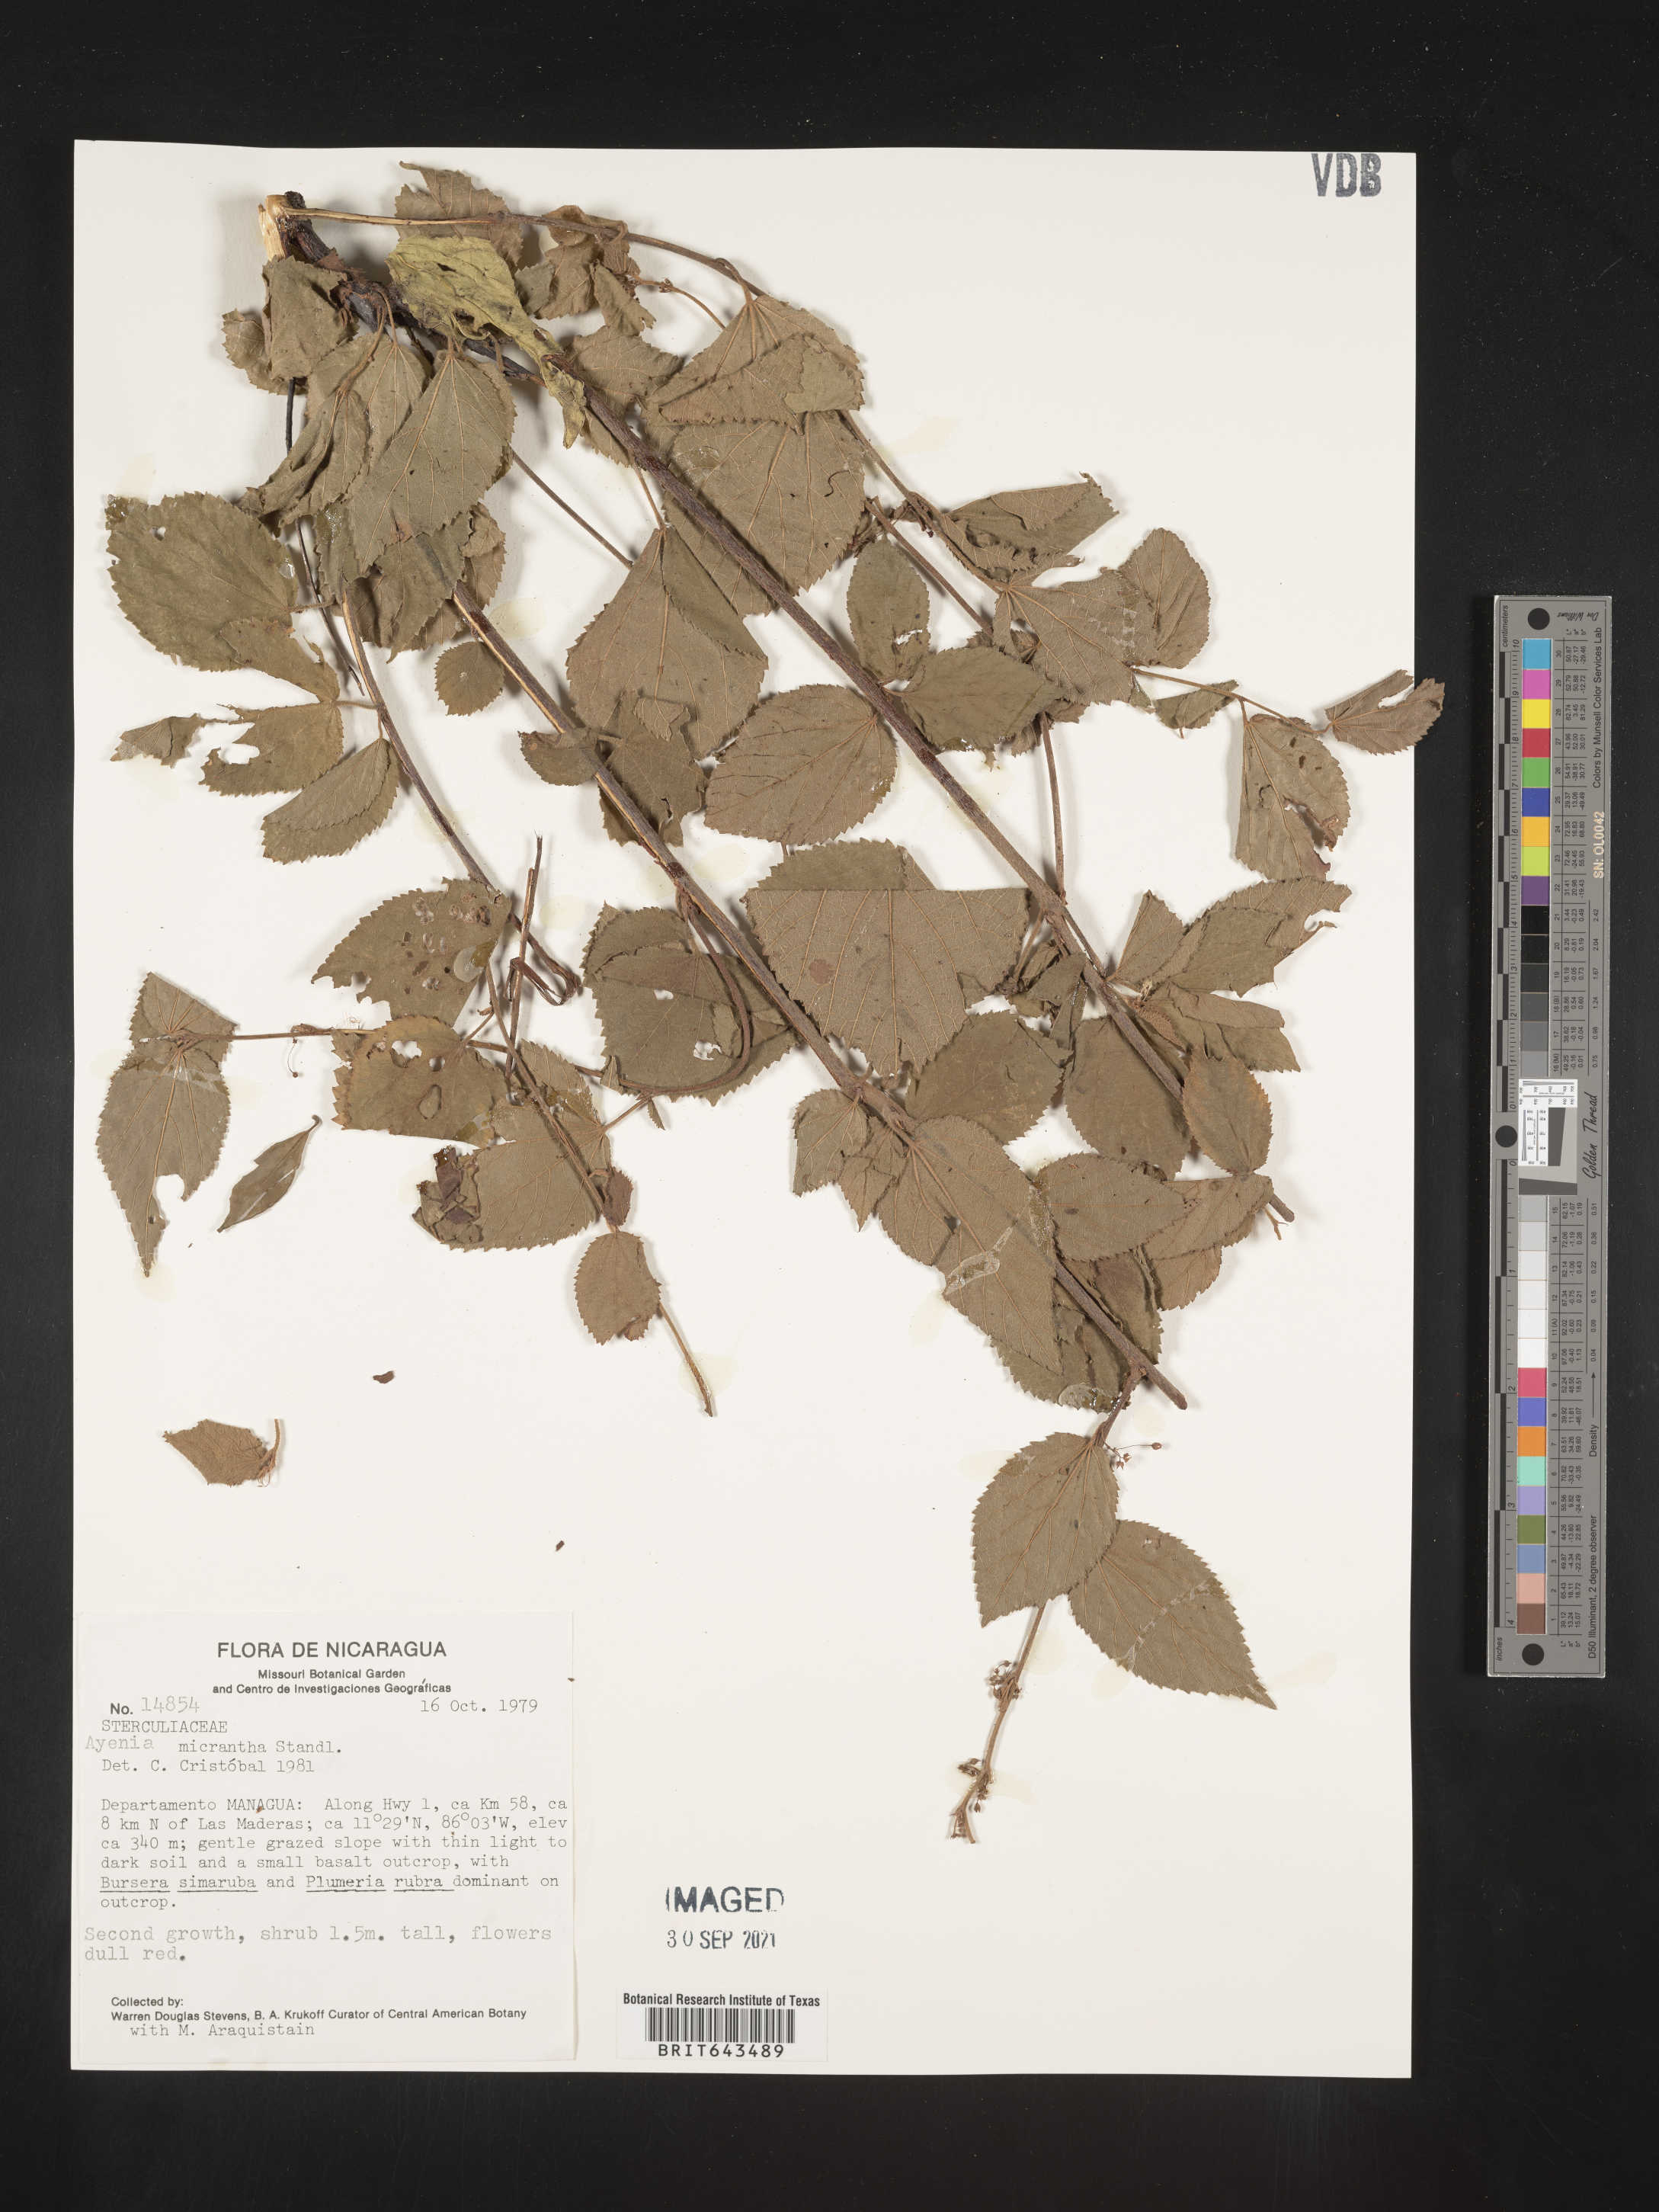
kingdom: Plantae
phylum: Tracheophyta
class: Magnoliopsida
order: Malvales
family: Malvaceae
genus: Ayenia
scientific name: Ayenia
